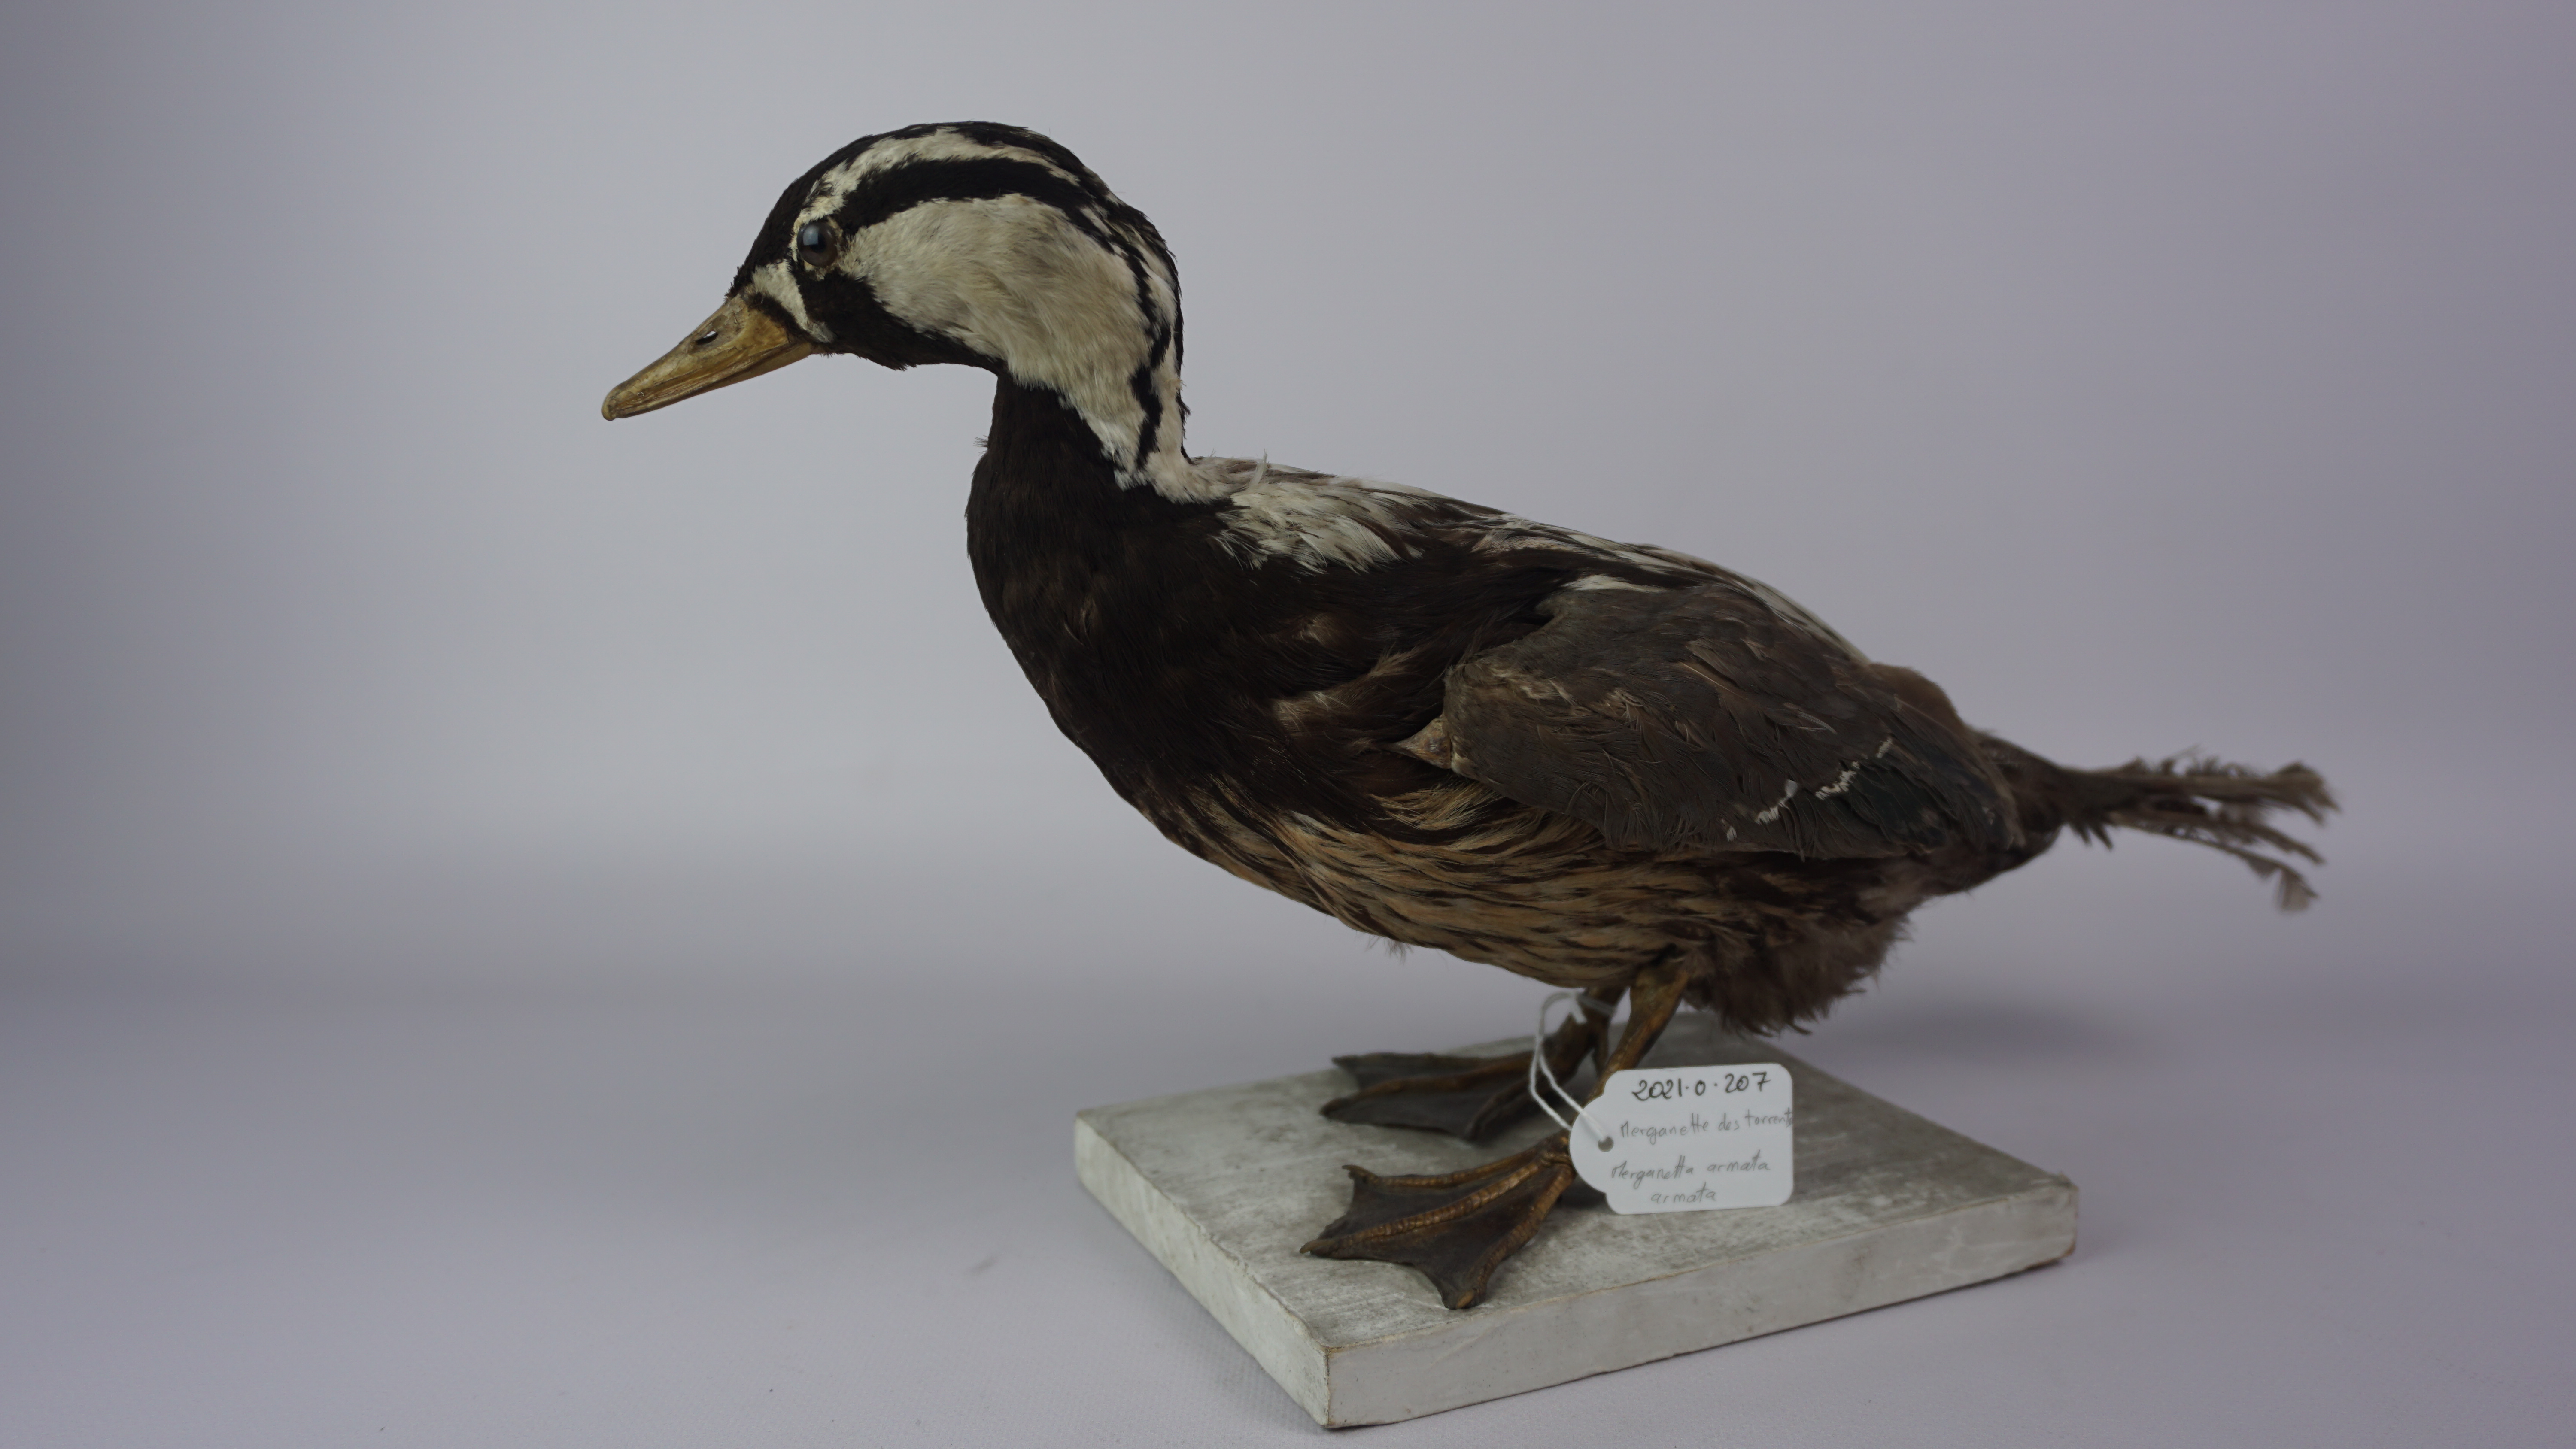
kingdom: Animalia
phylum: Chordata
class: Aves
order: Anseriformes
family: Anatidae
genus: Merganetta
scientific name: Merganetta armata
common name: Torrent duck
